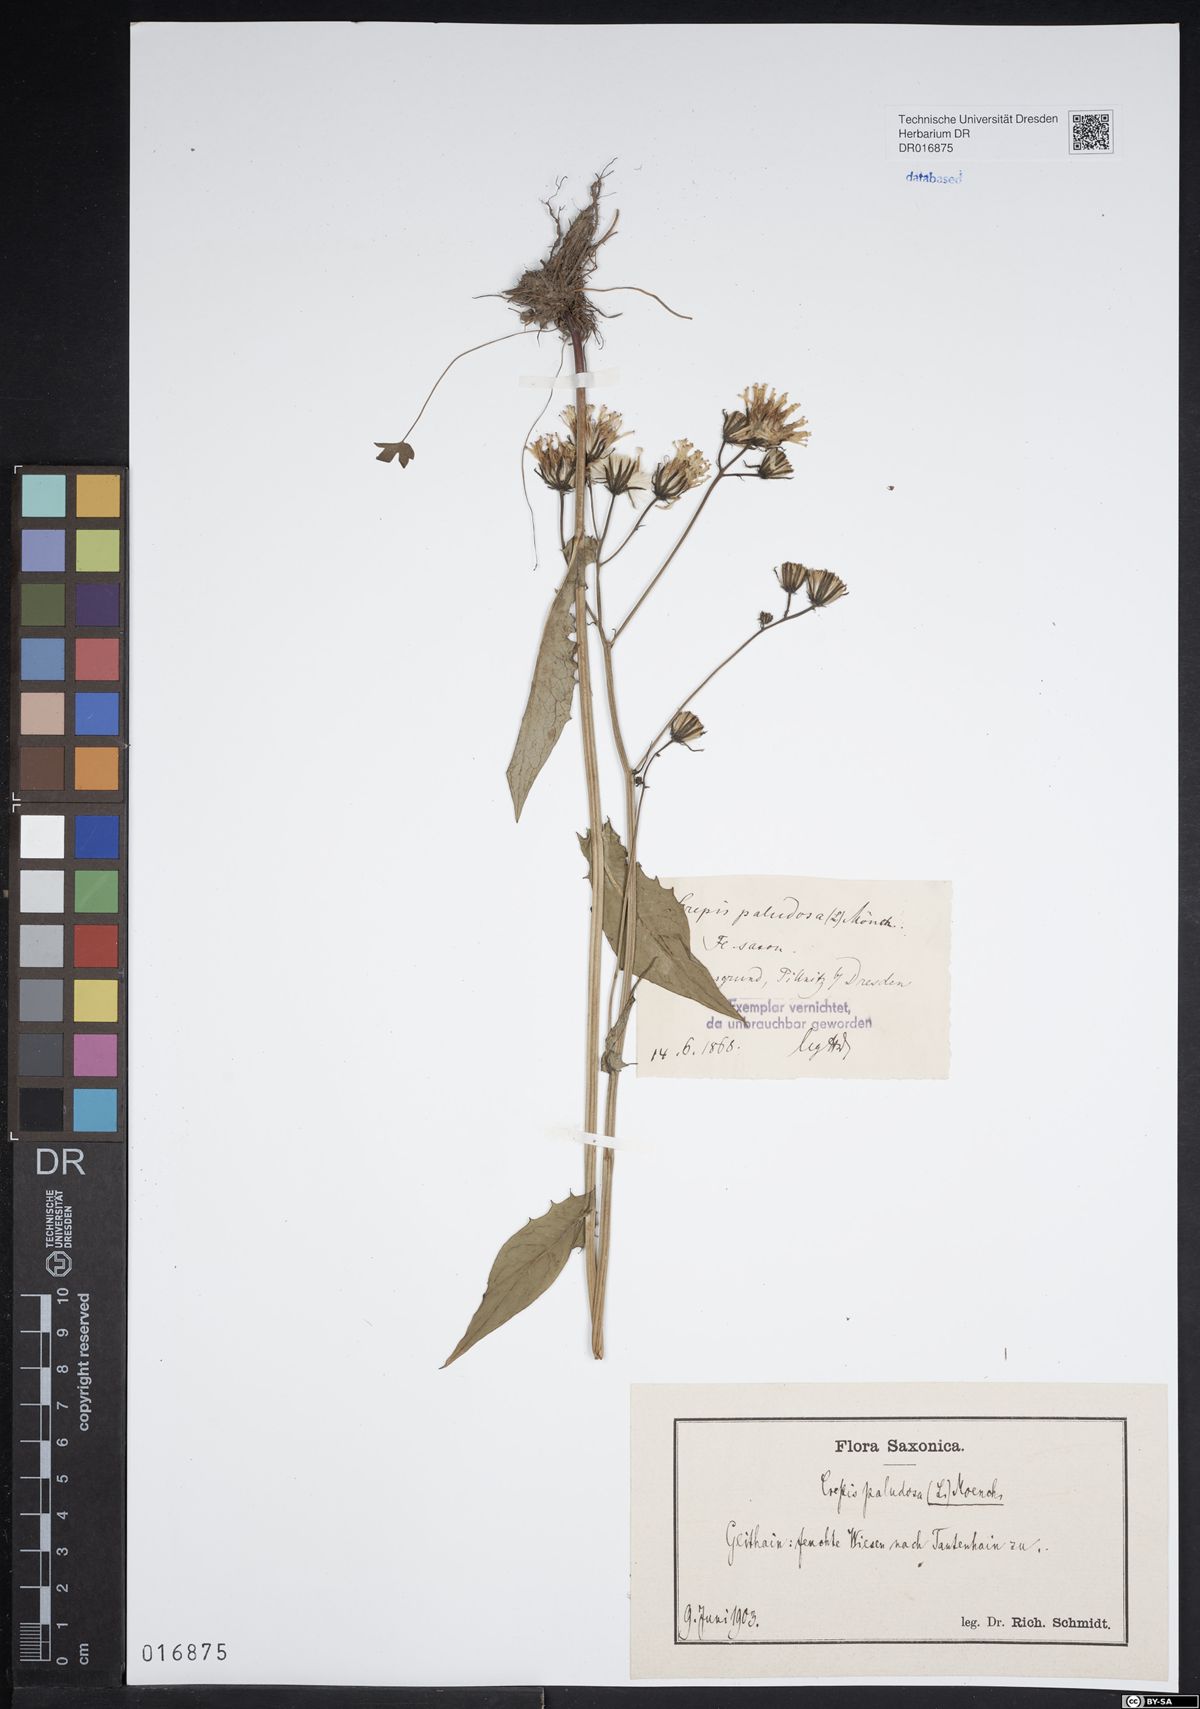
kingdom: Plantae
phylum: Tracheophyta
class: Magnoliopsida
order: Asterales
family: Asteraceae
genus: Crepis
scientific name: Crepis paludosa
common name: Marsh hawk's-beard
